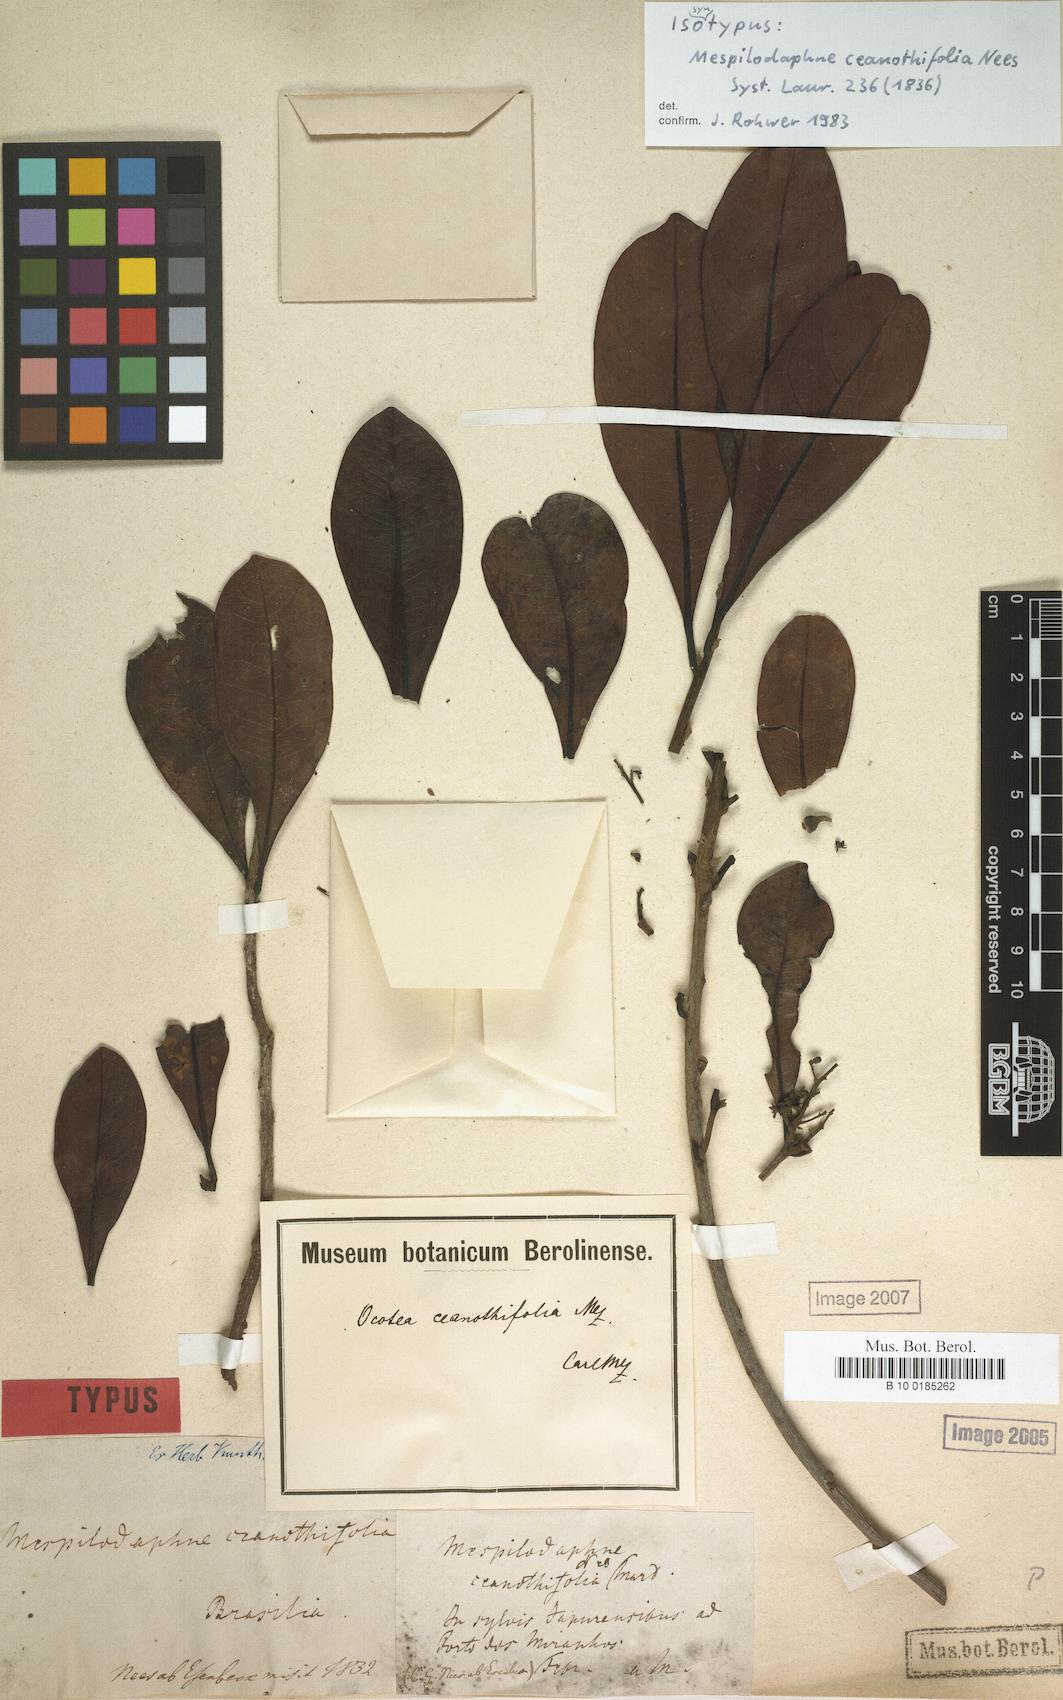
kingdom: Plantae
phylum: Tracheophyta
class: Magnoliopsida
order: Laurales
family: Lauraceae
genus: Mespilodaphne
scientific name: Mespilodaphne ceanothifolia
